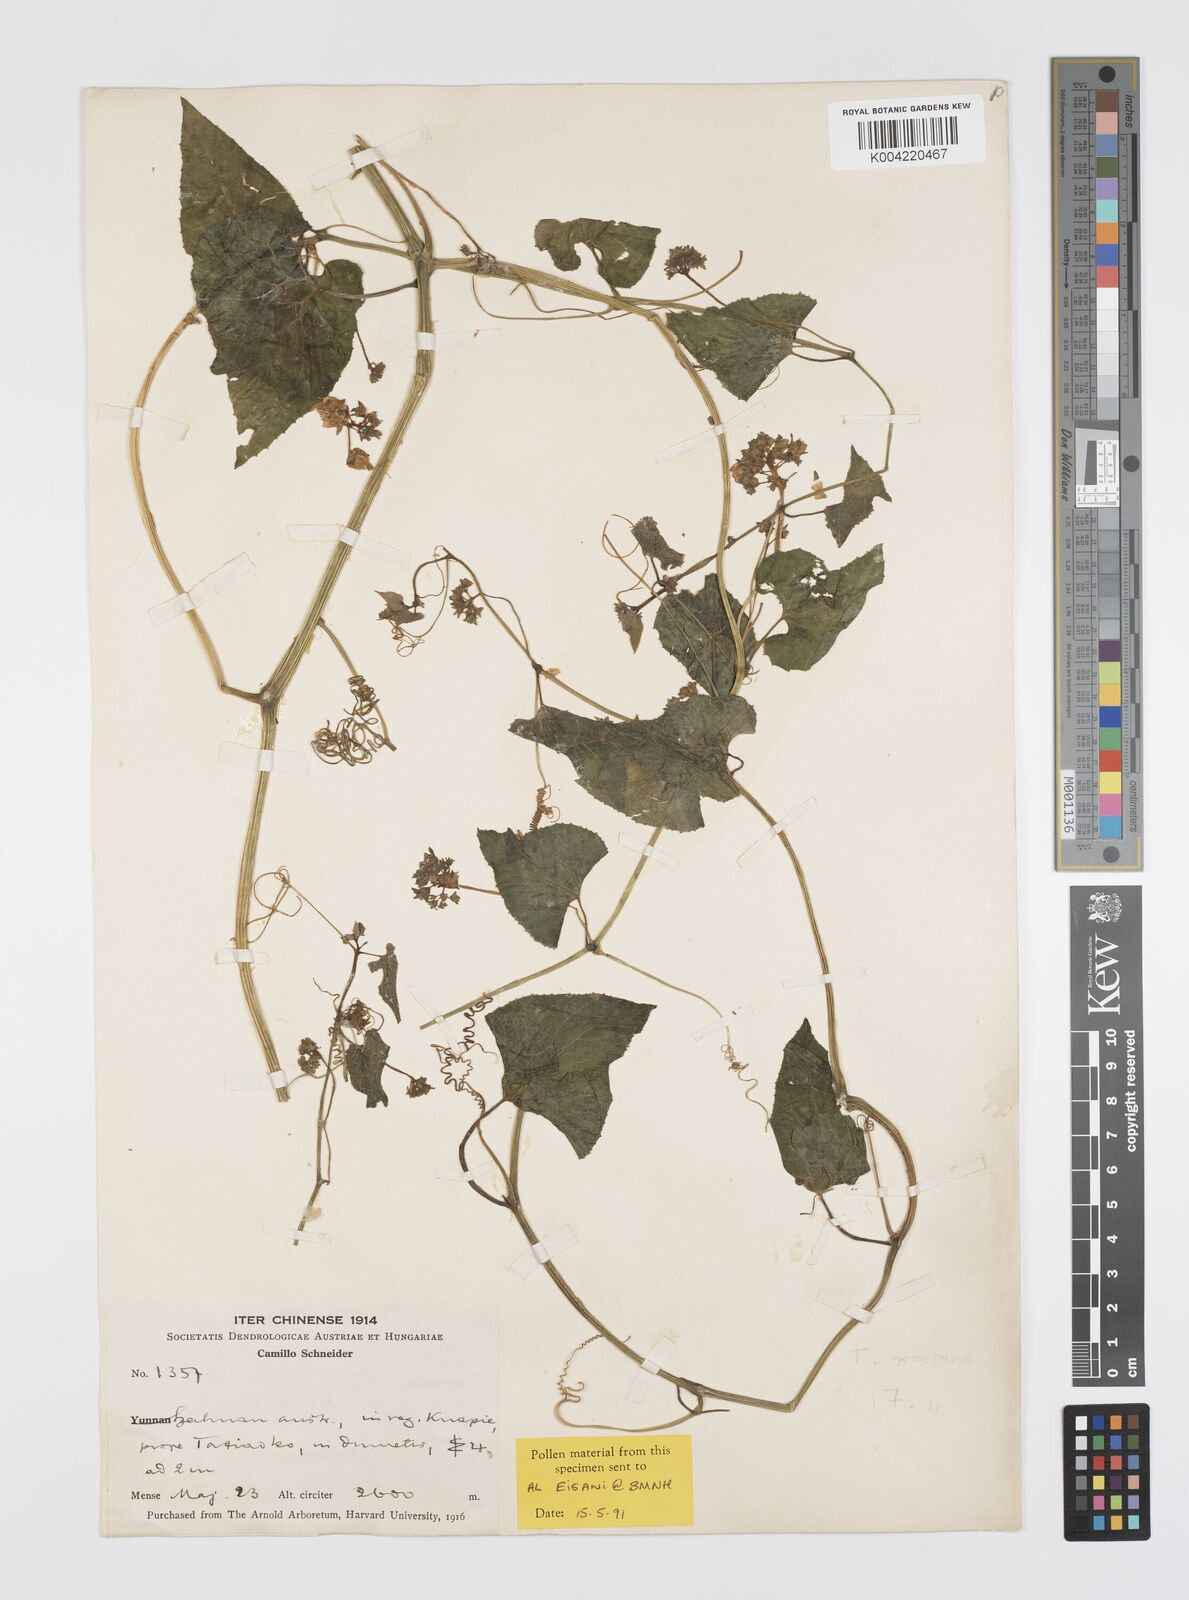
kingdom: Plantae
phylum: Tracheophyta
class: Magnoliopsida
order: Cucurbitales
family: Cucurbitaceae
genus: Thladiantha
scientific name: Thladiantha montana
